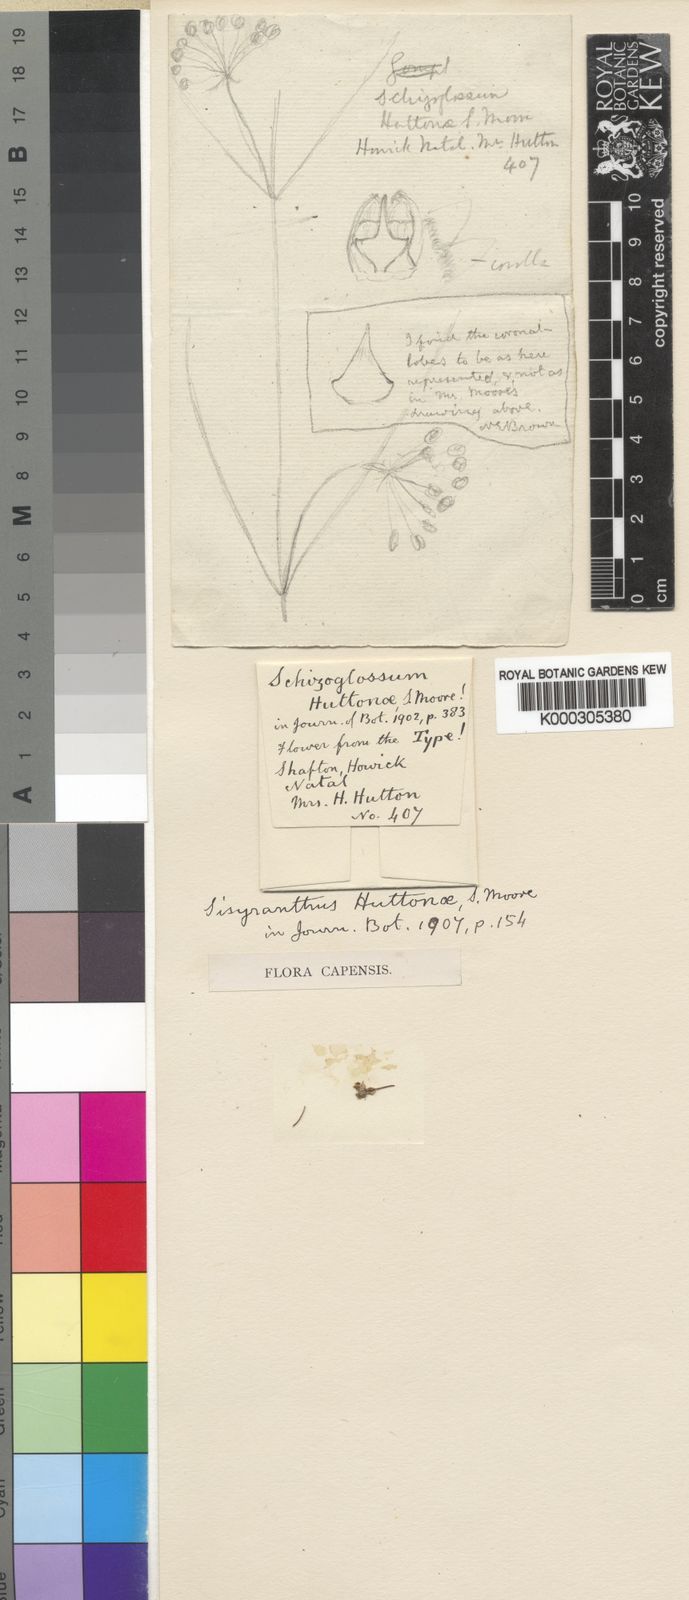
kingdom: Plantae
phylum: Tracheophyta
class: Magnoliopsida
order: Gentianales
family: Apocynaceae
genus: Sisyranthus
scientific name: Sisyranthus huttoniae
